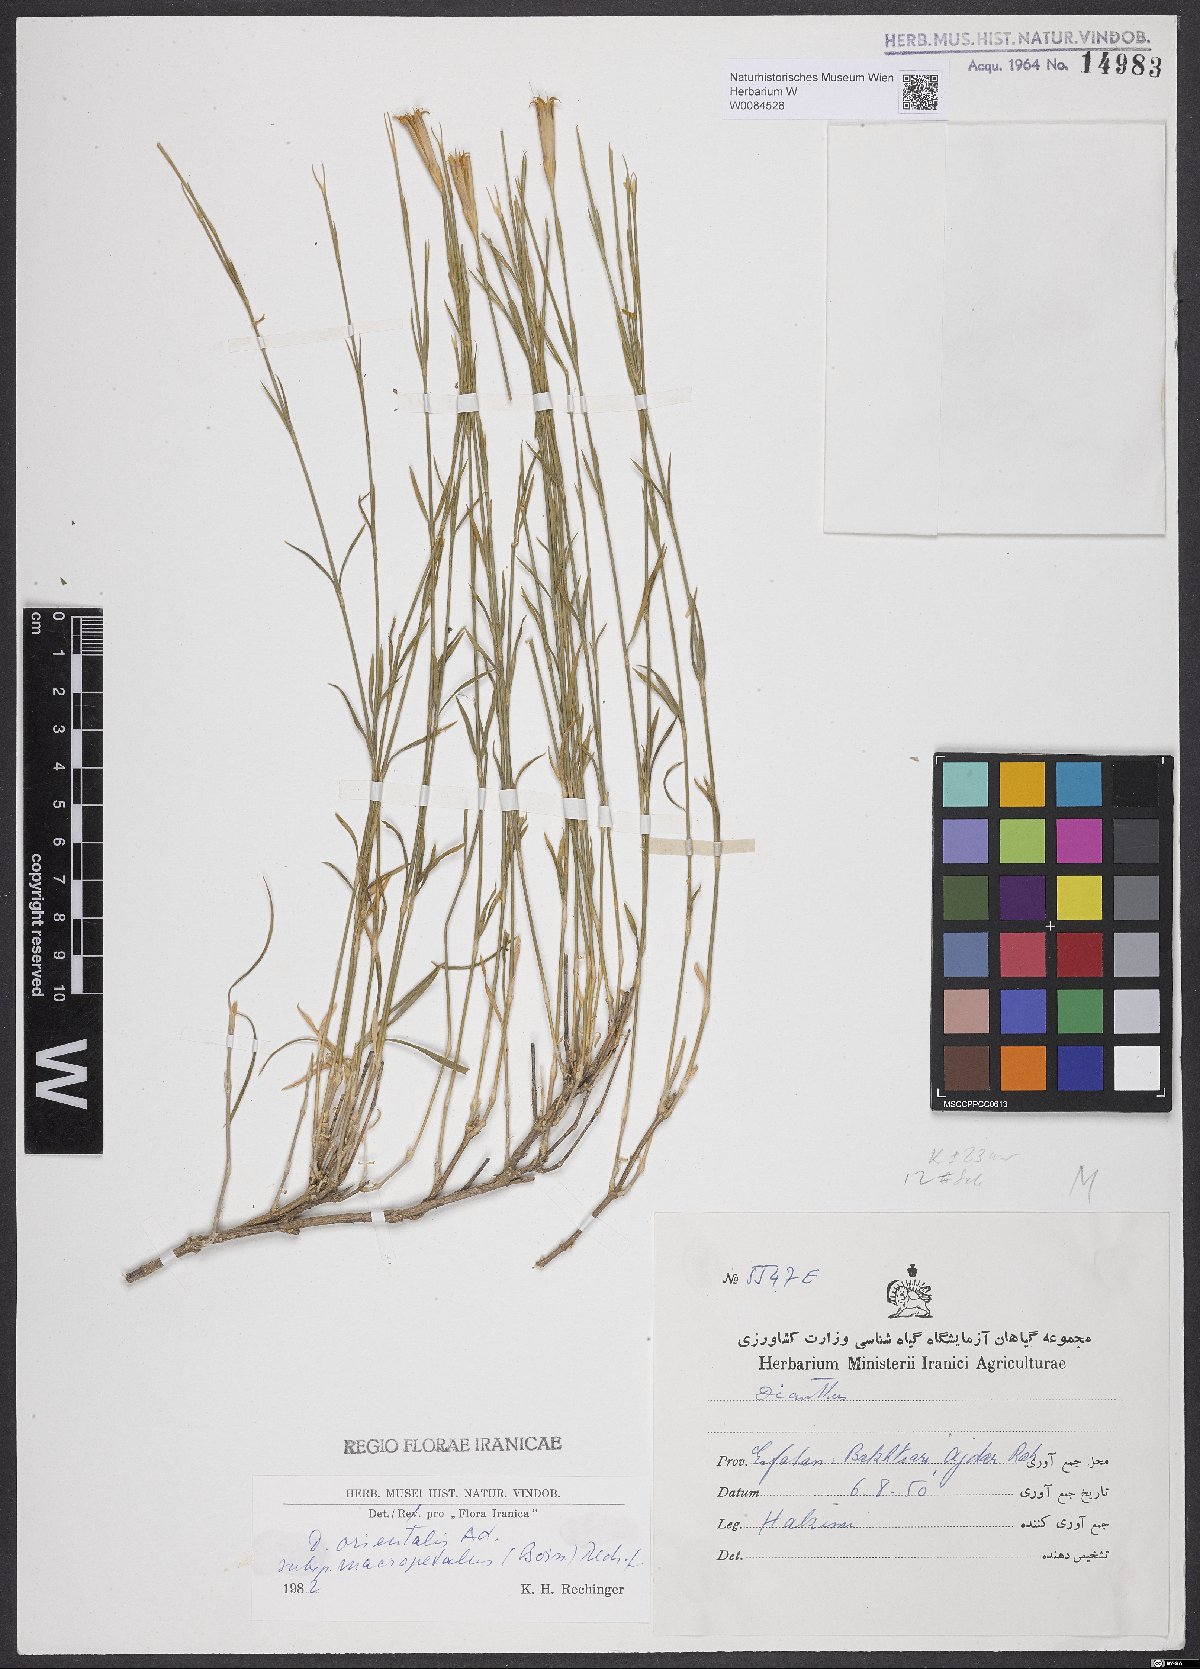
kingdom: Plantae
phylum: Tracheophyta
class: Magnoliopsida
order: Caryophyllales
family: Caryophyllaceae
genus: Dianthus
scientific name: Dianthus orientalis
